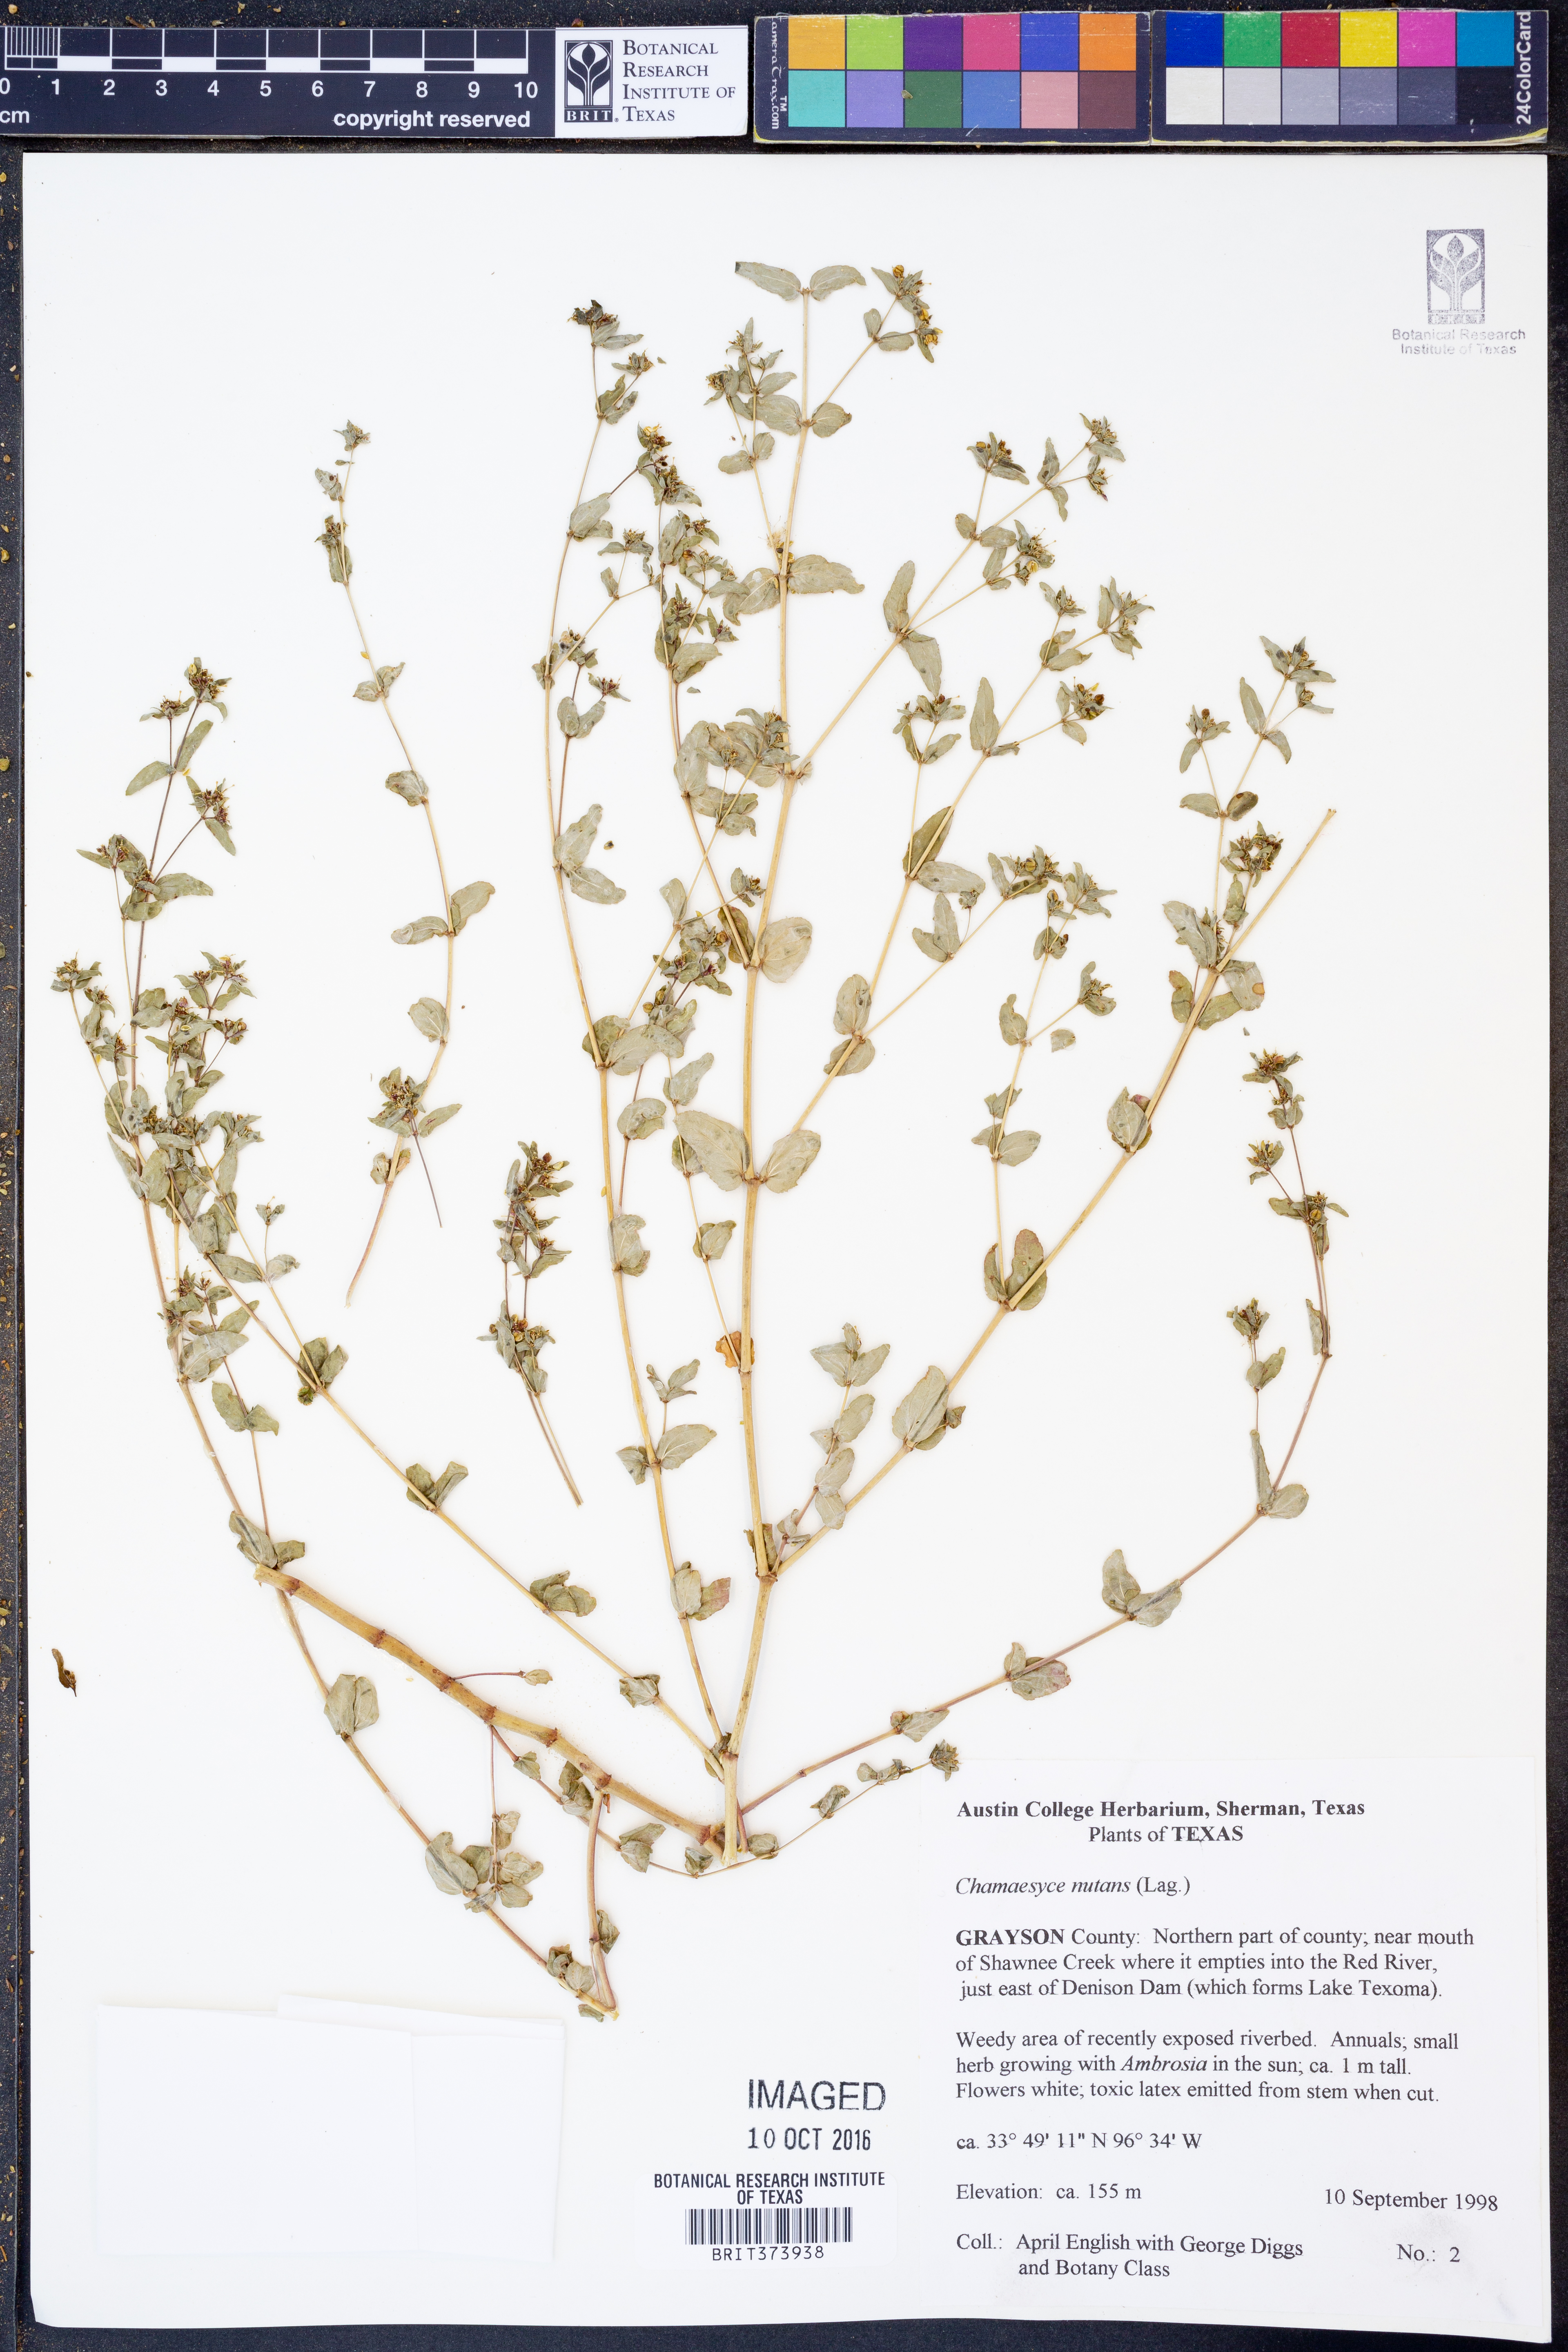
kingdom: Plantae
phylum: Tracheophyta
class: Magnoliopsida
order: Malpighiales
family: Euphorbiaceae
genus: Euphorbia
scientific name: Euphorbia nutans
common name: Eyebane
